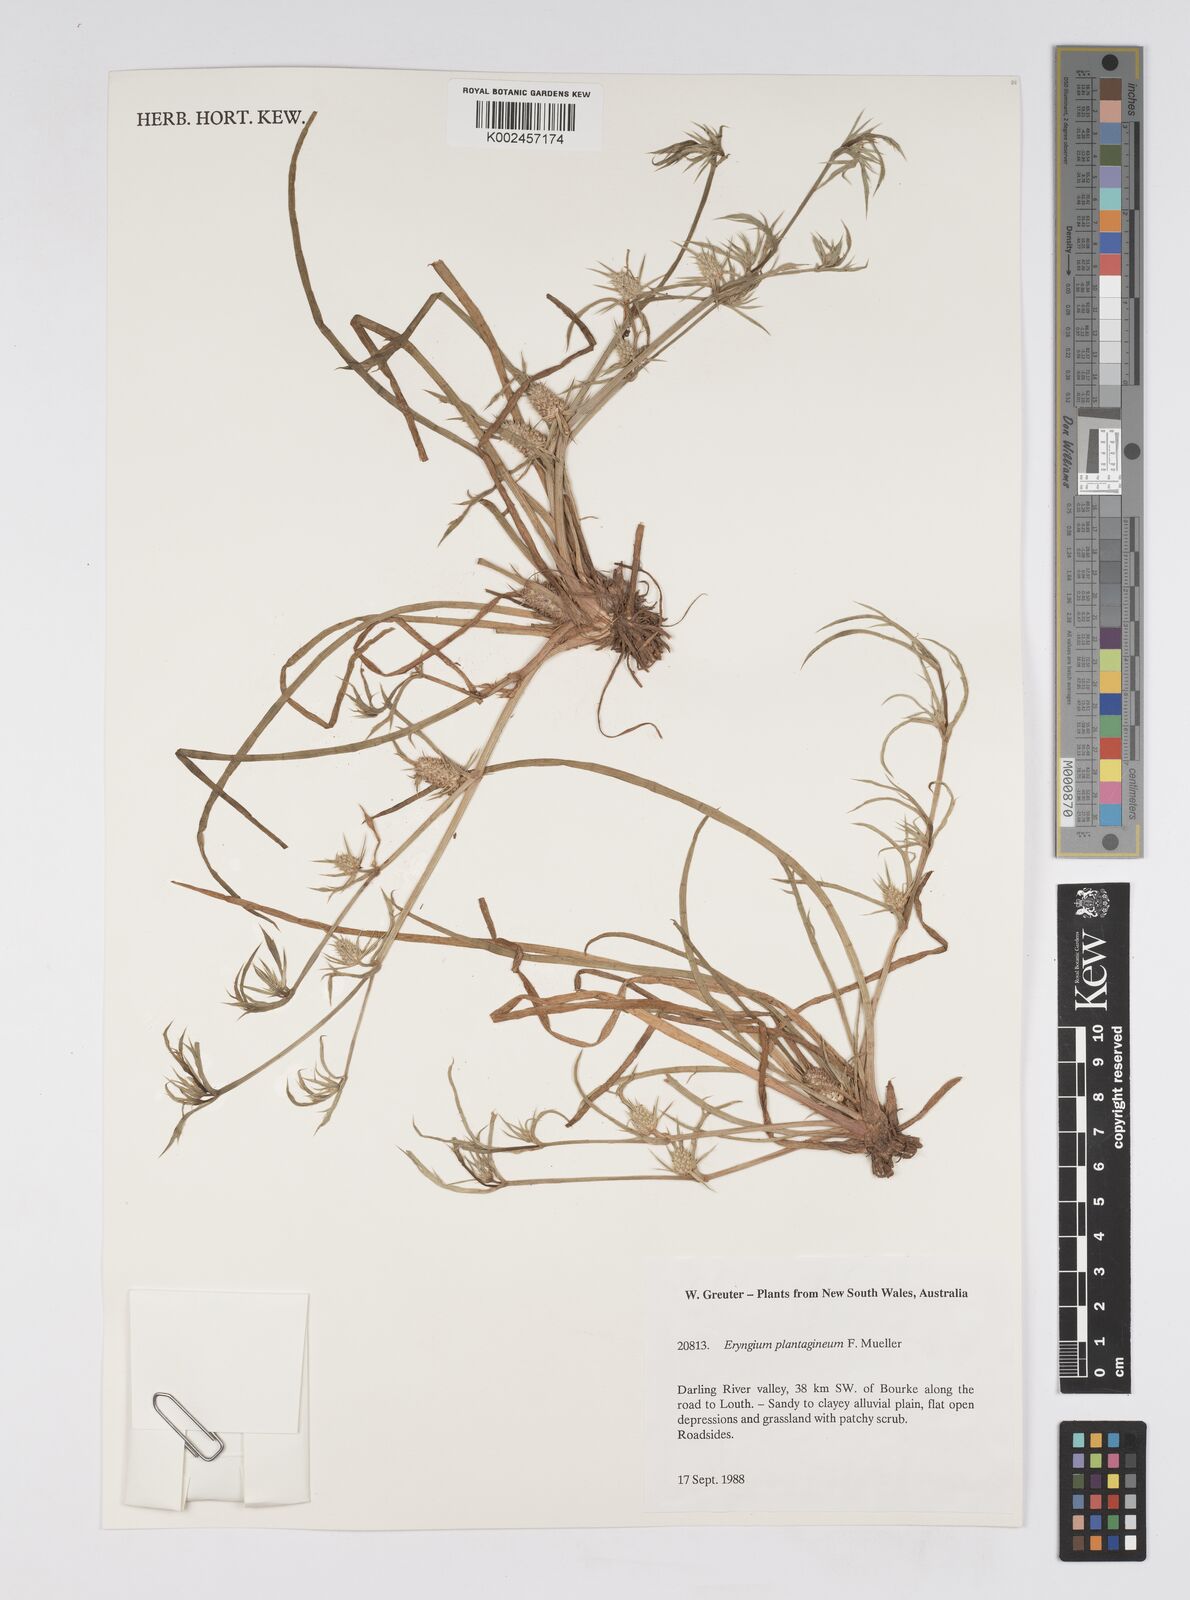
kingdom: Plantae
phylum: Tracheophyta
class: Magnoliopsida
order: Apiales
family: Apiaceae
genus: Eryngium
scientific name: Eryngium plantagineum
